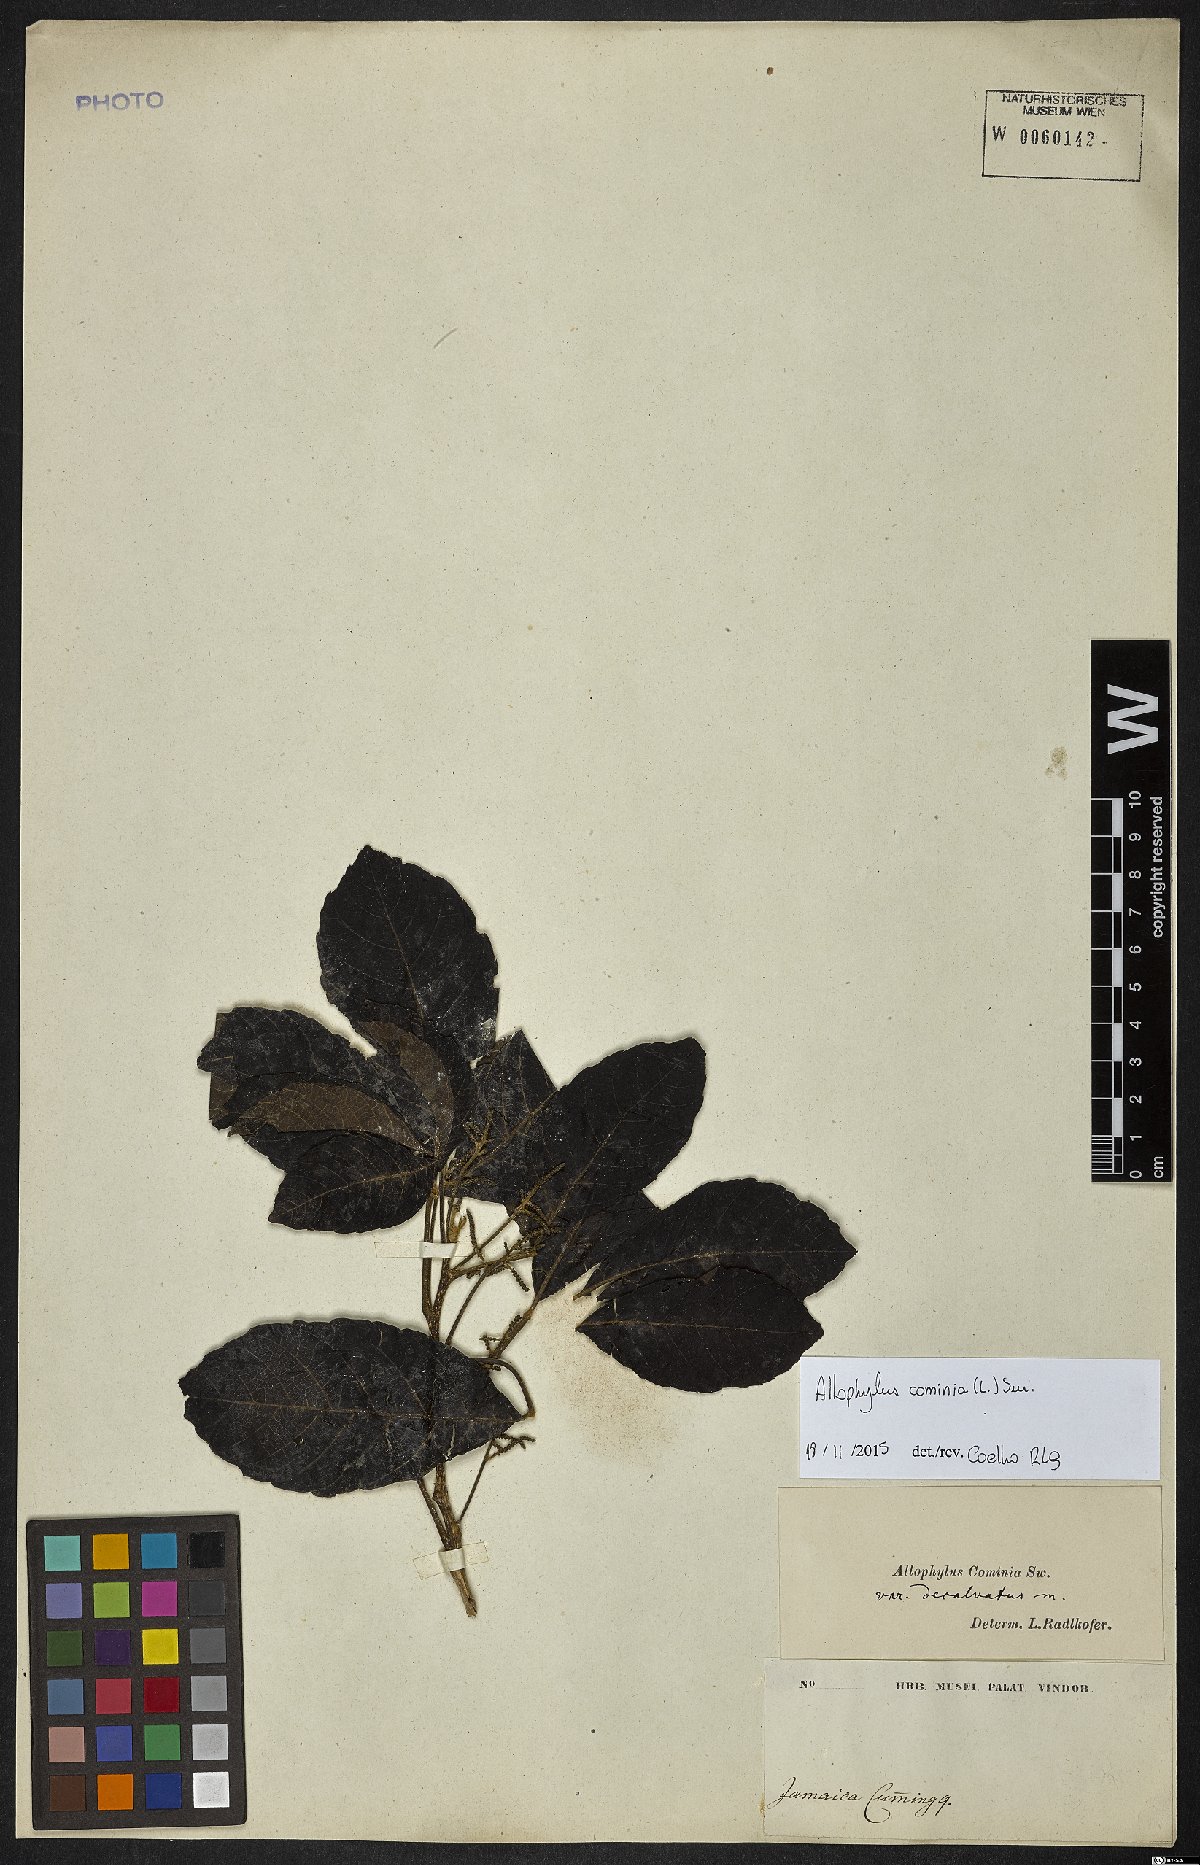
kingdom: Plantae
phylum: Tracheophyta
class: Magnoliopsida
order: Sapindales
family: Sapindaceae
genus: Allophylus
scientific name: Allophylus cominia
